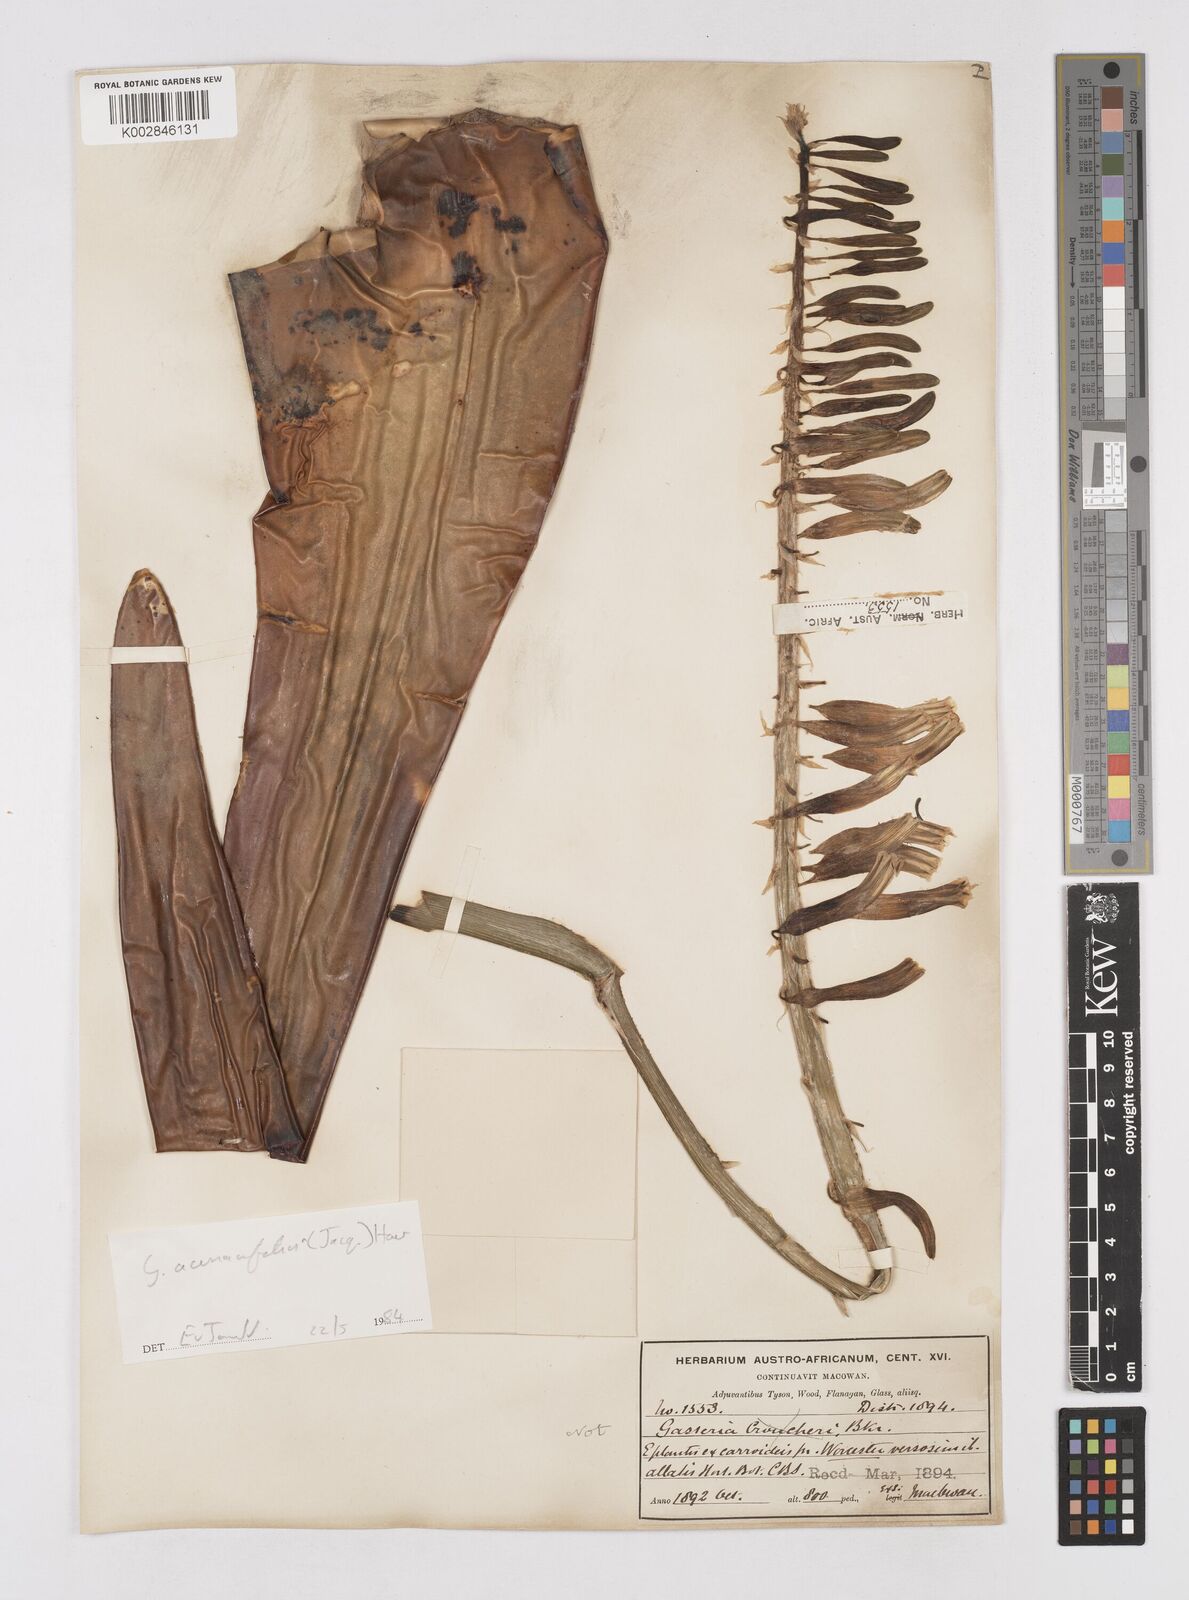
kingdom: Plantae
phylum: Tracheophyta
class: Liliopsida
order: Asparagales
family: Asphodelaceae
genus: Gasteria
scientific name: Gasteria
